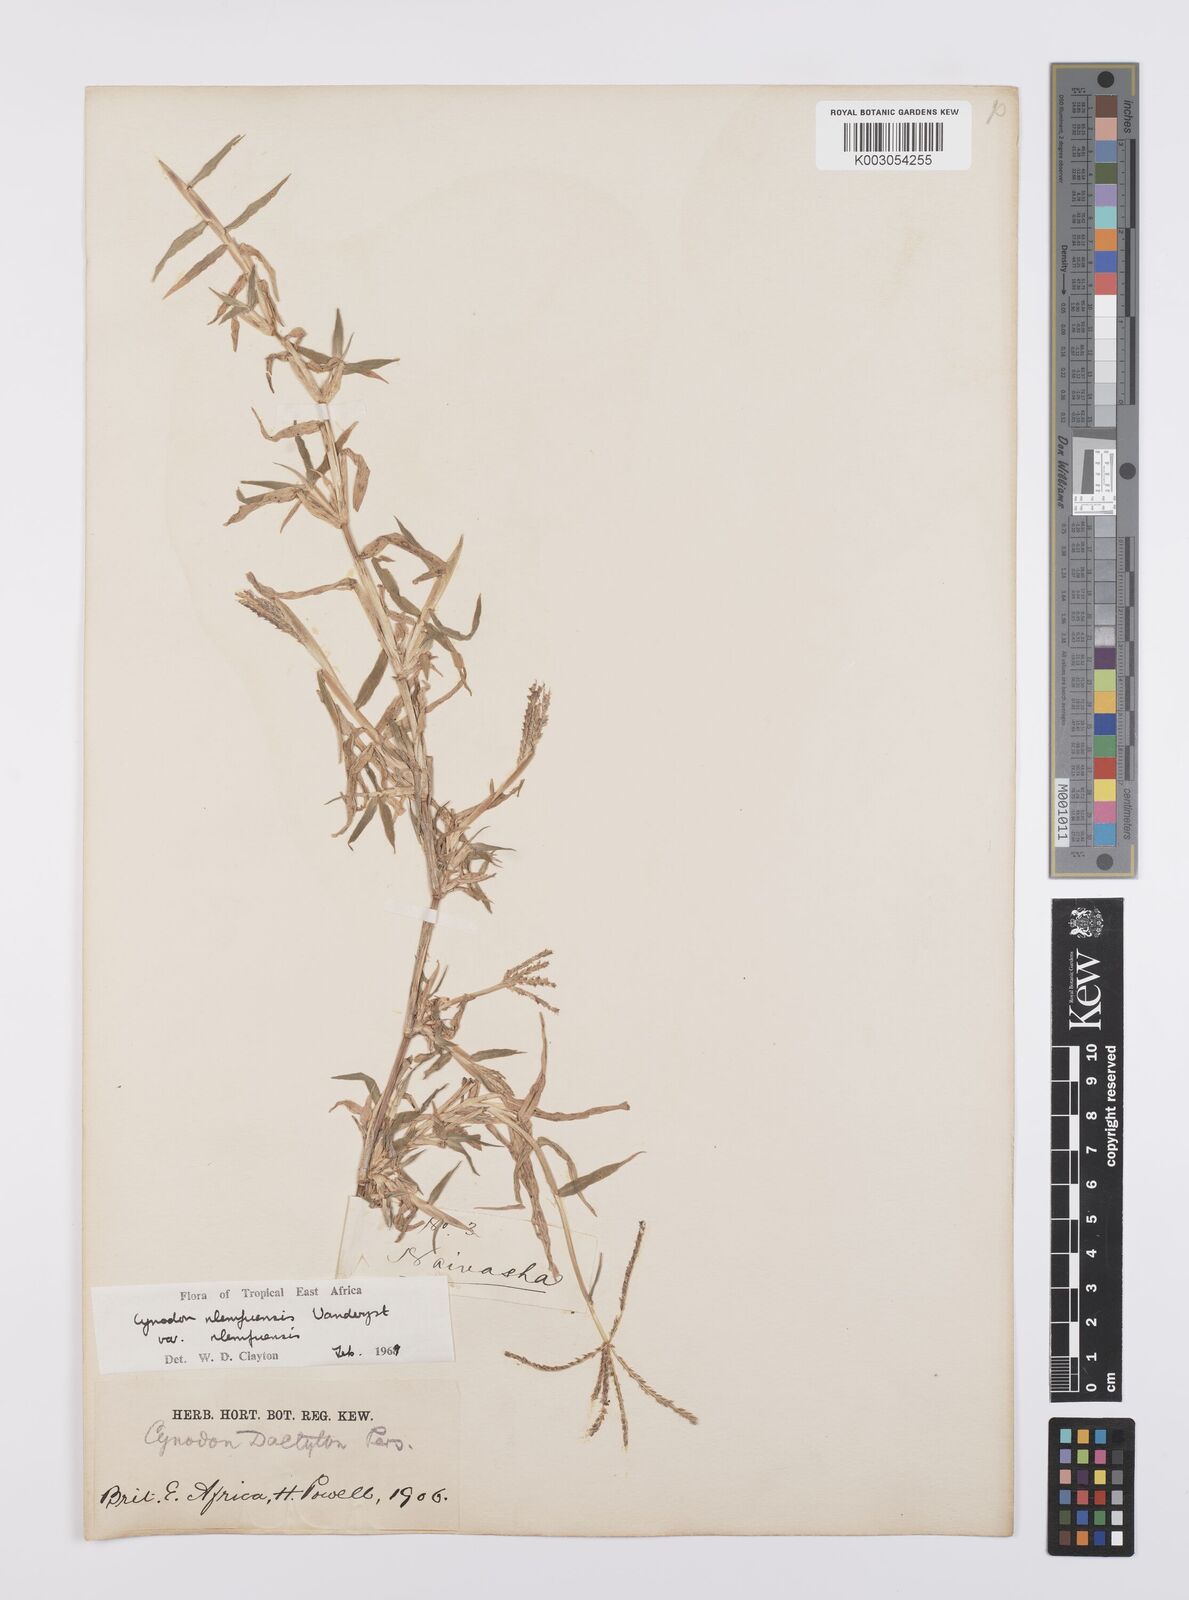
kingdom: Plantae
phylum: Tracheophyta
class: Liliopsida
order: Poales
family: Poaceae
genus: Cynodon
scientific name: Cynodon nlemfuensis
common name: African bermudagrass
